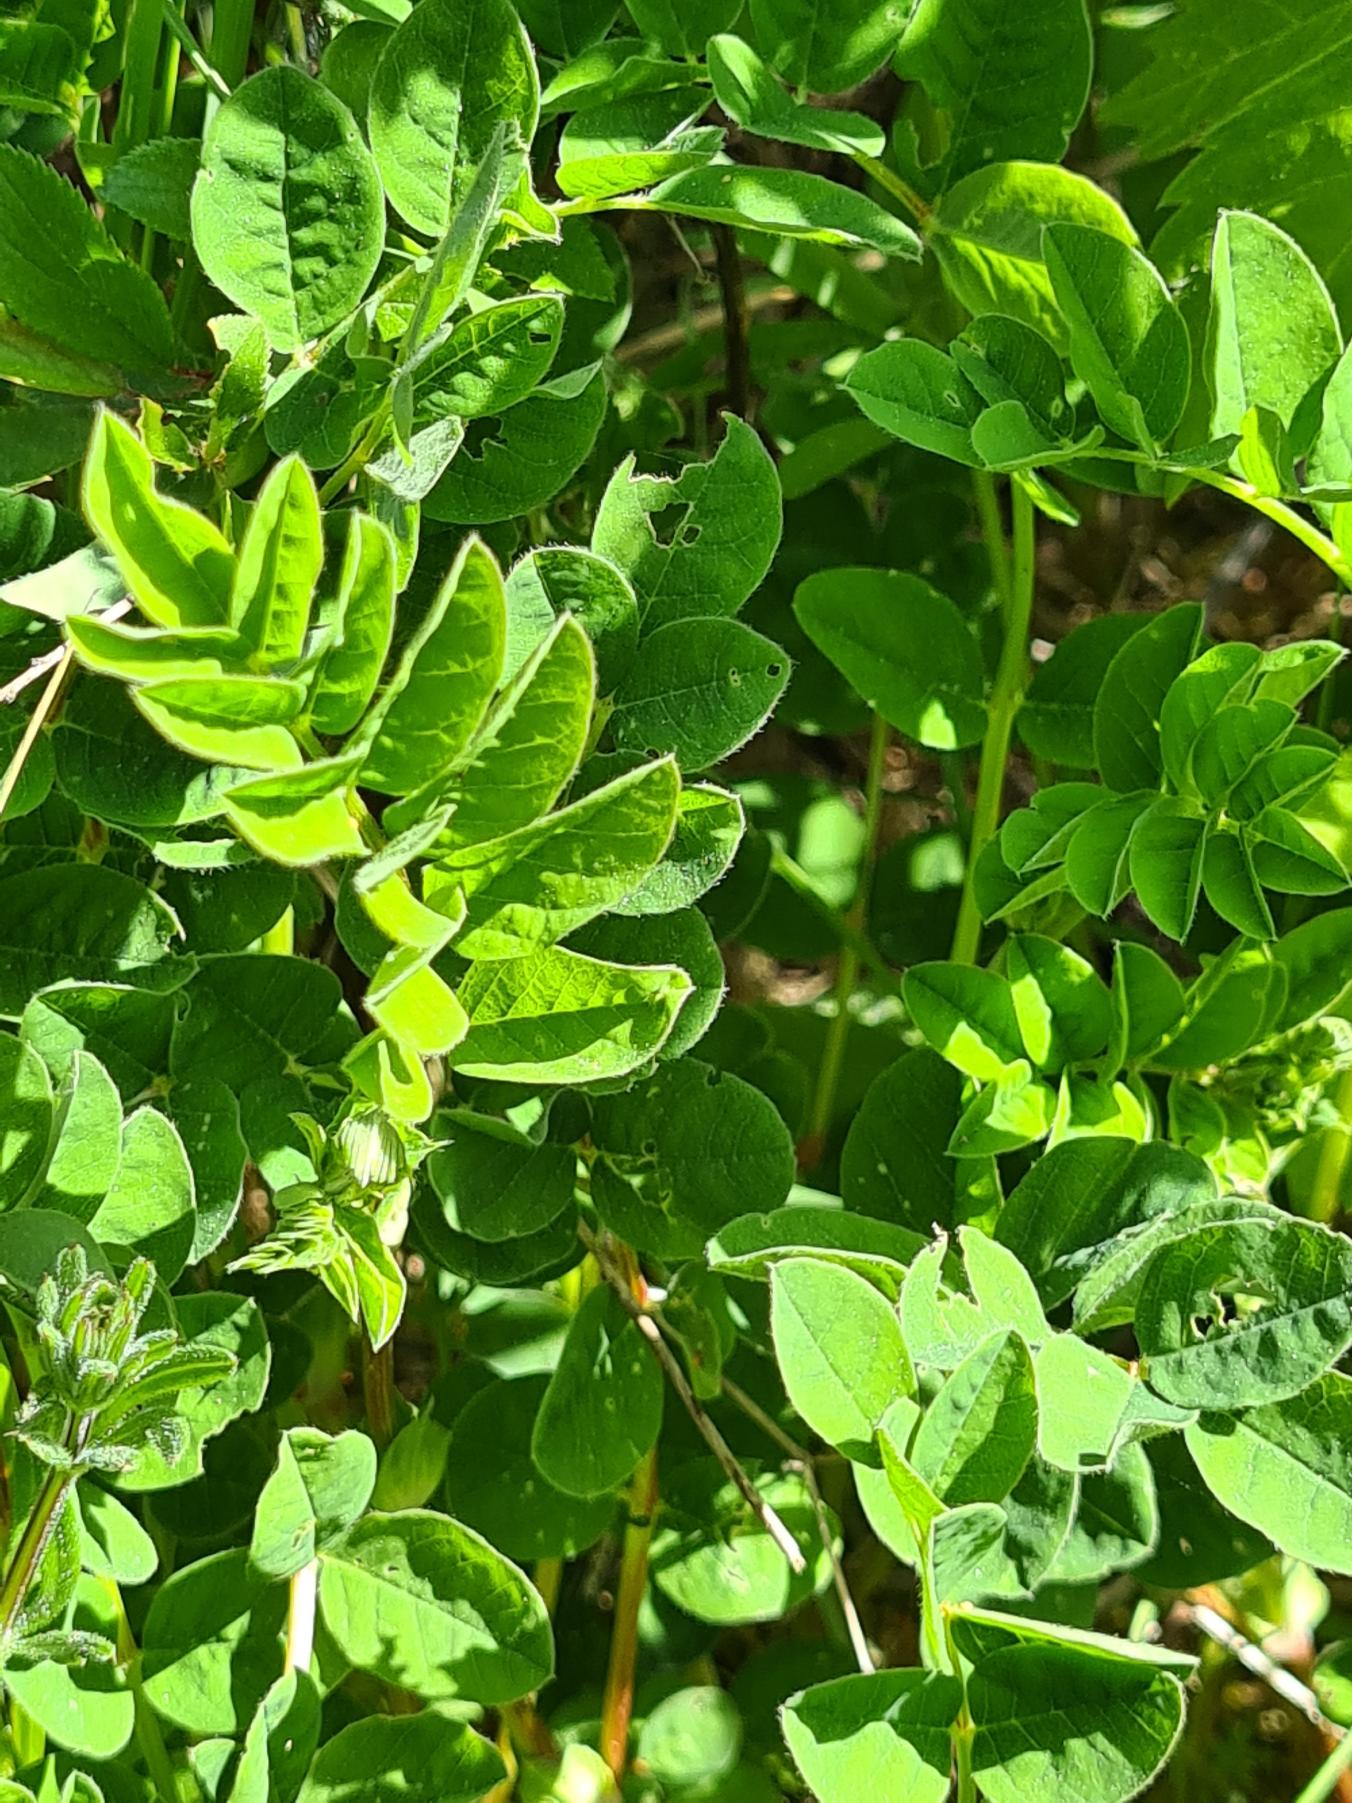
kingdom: Plantae
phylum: Tracheophyta
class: Magnoliopsida
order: Fabales
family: Fabaceae
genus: Astragalus
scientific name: Astragalus glycyphyllos
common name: Sød astragel
